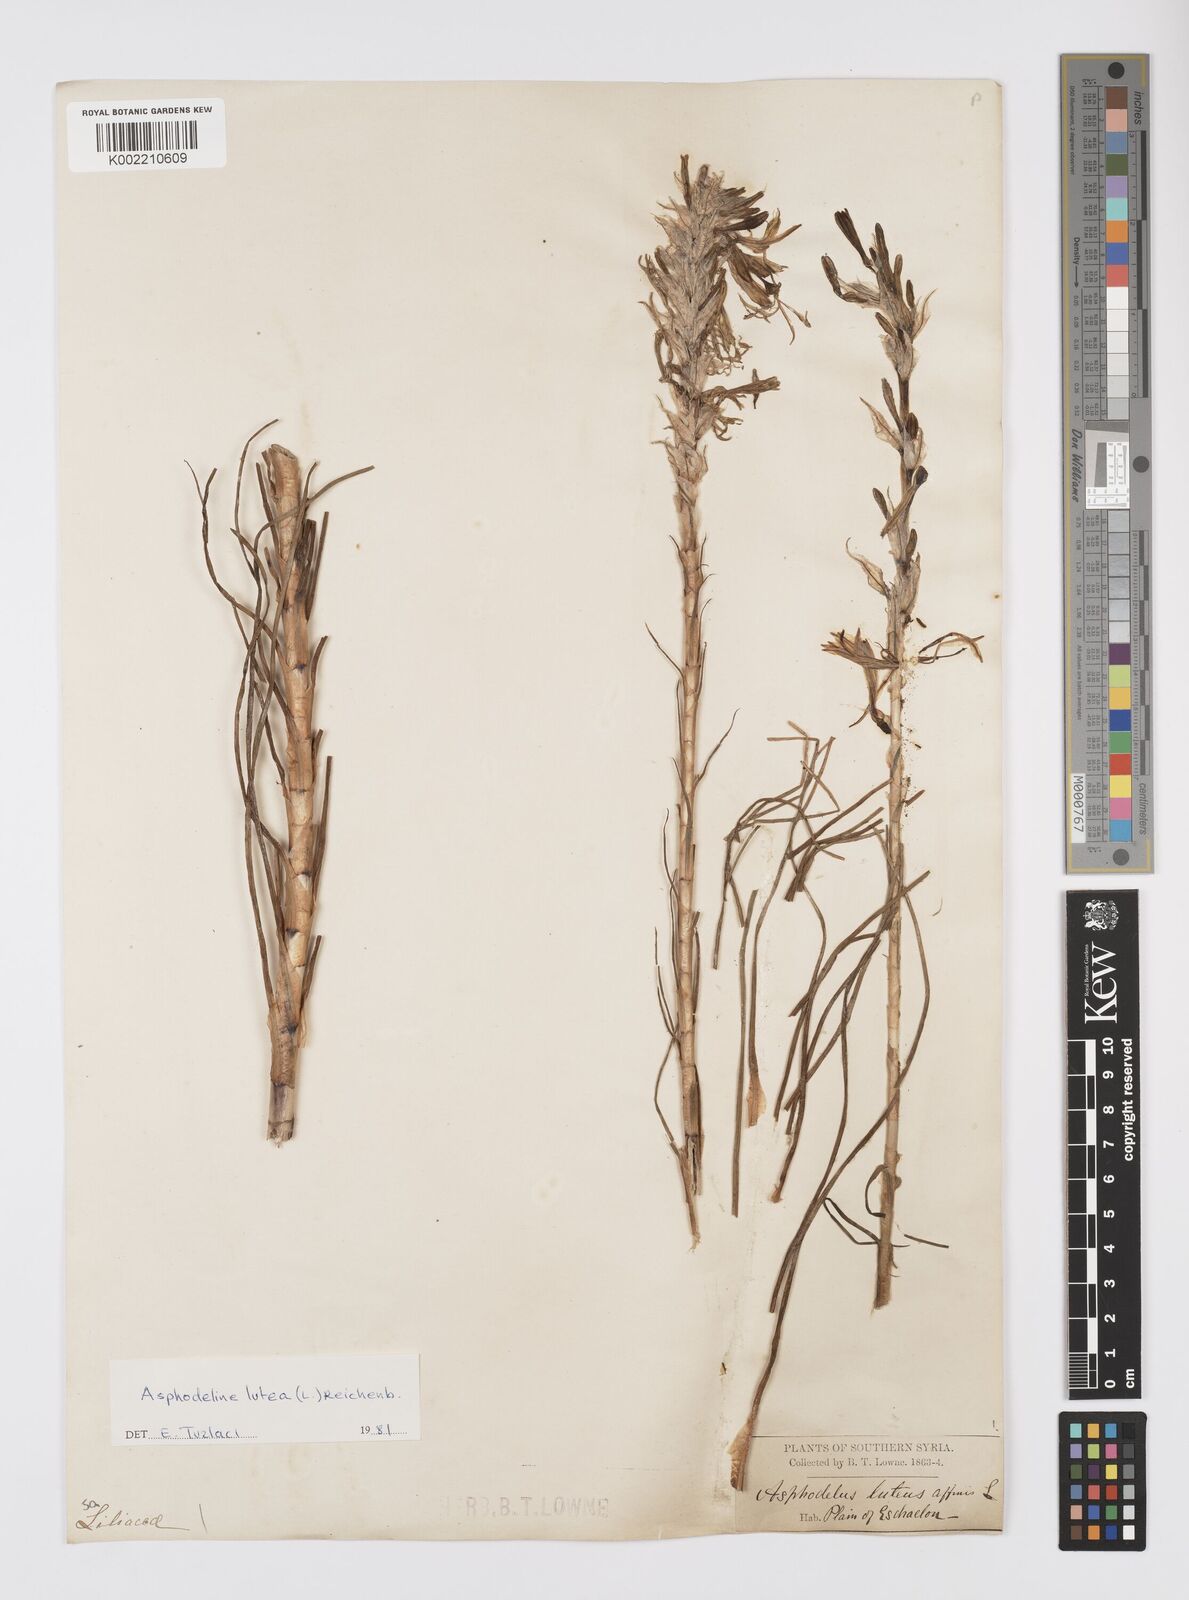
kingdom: Plantae
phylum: Tracheophyta
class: Liliopsida
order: Asparagales
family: Asphodelaceae
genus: Asphodeline
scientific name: Asphodeline lutea
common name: Yellow asphodel
